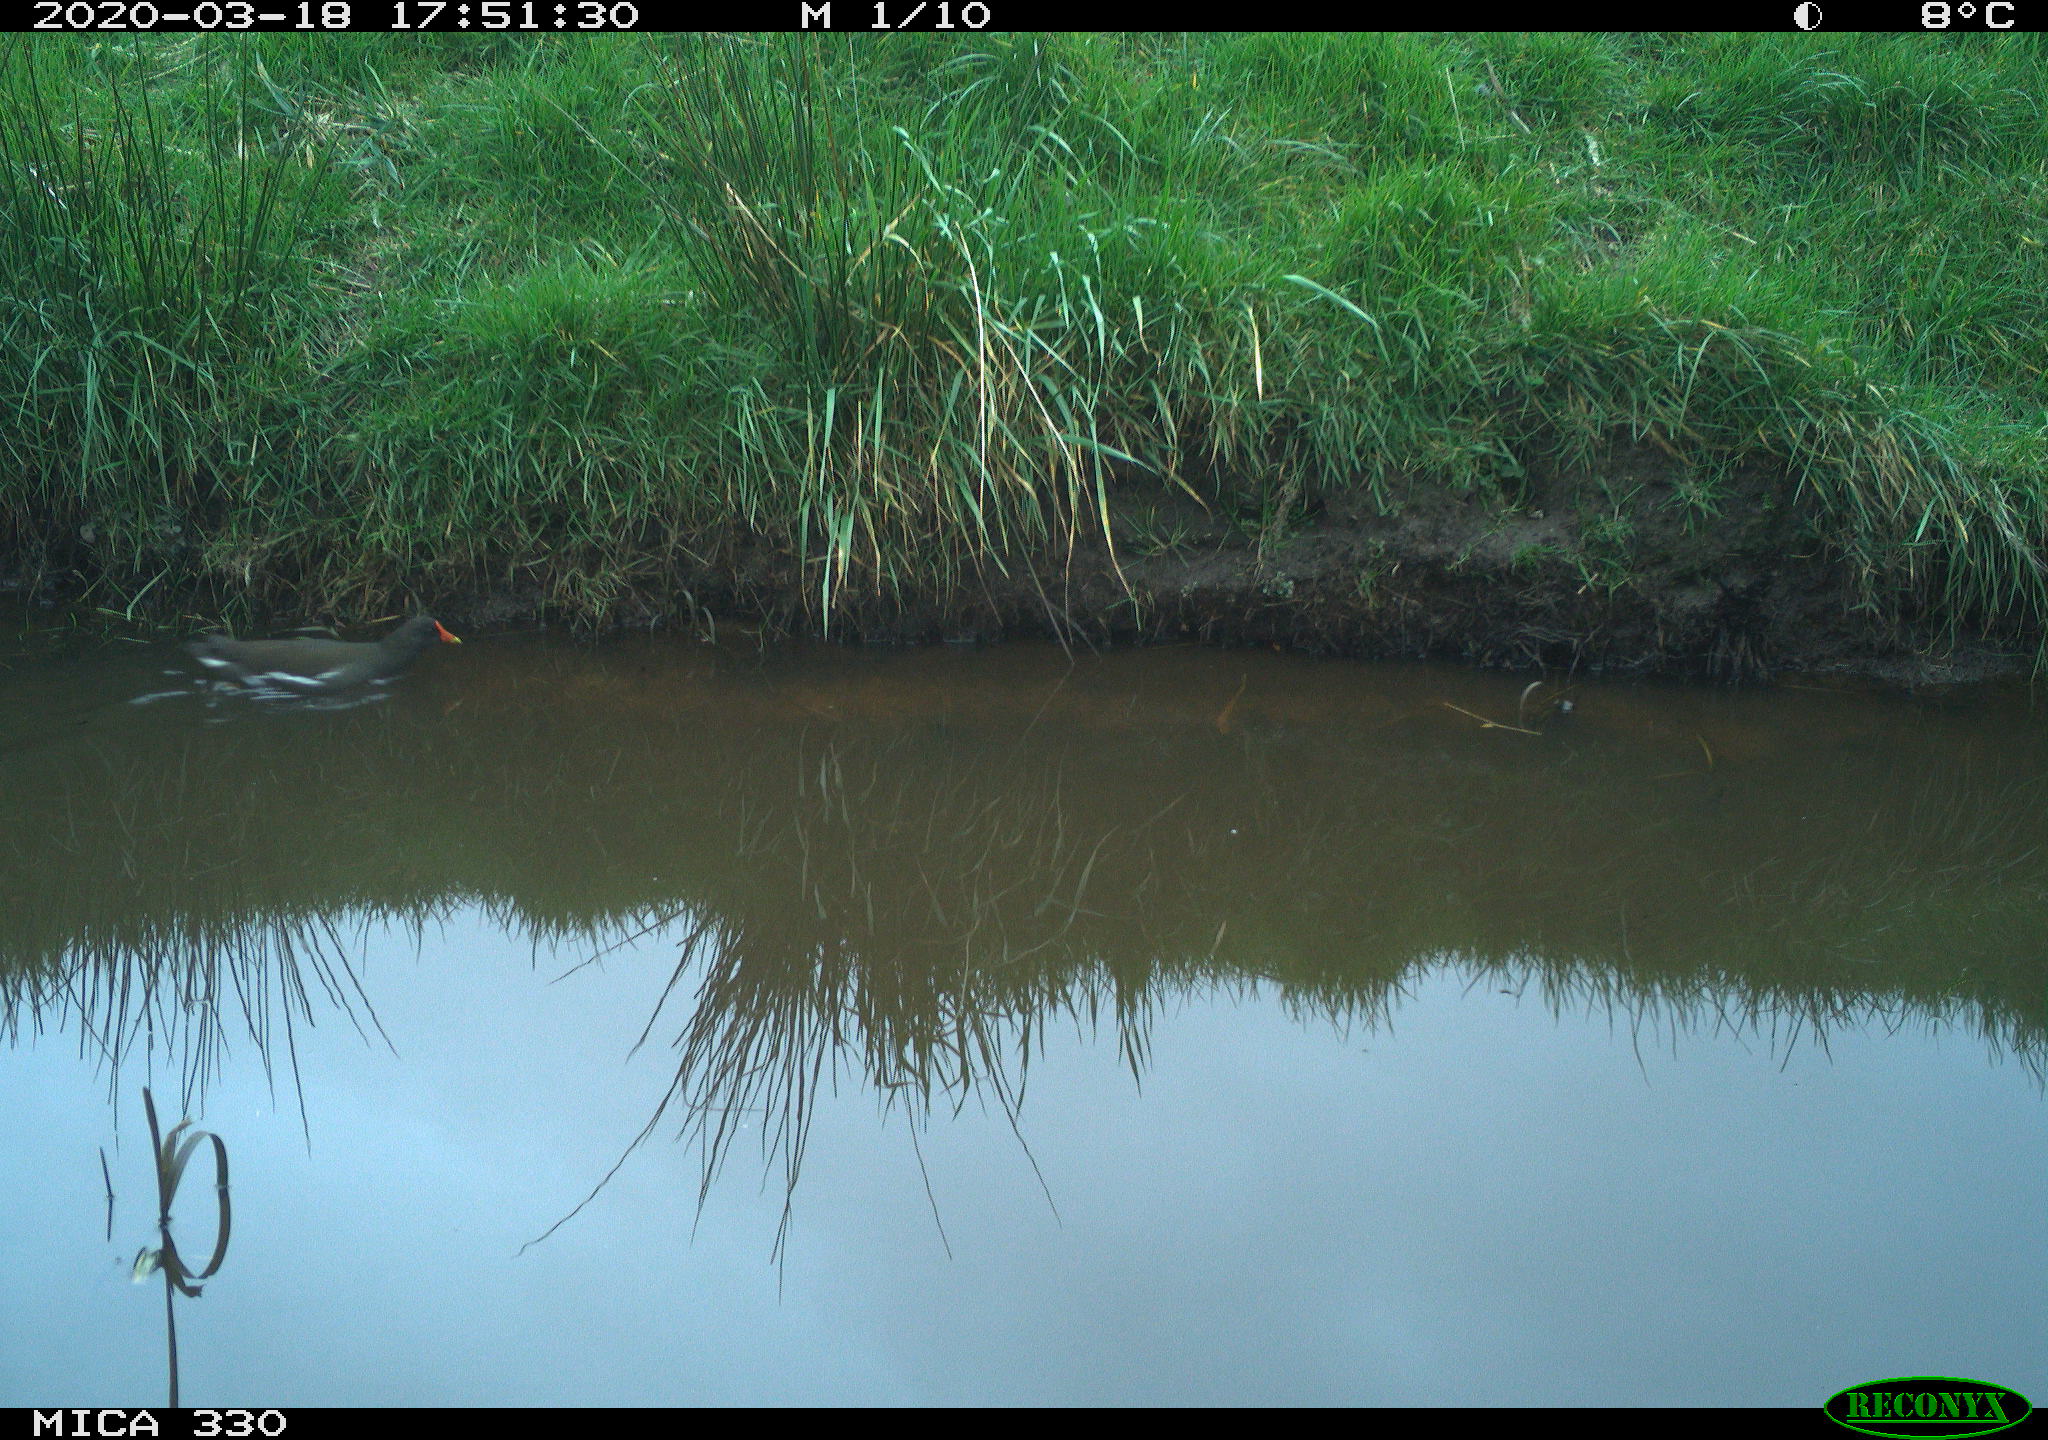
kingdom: Animalia
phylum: Chordata
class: Aves
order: Gruiformes
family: Rallidae
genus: Gallinula
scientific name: Gallinula chloropus
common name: Common moorhen
